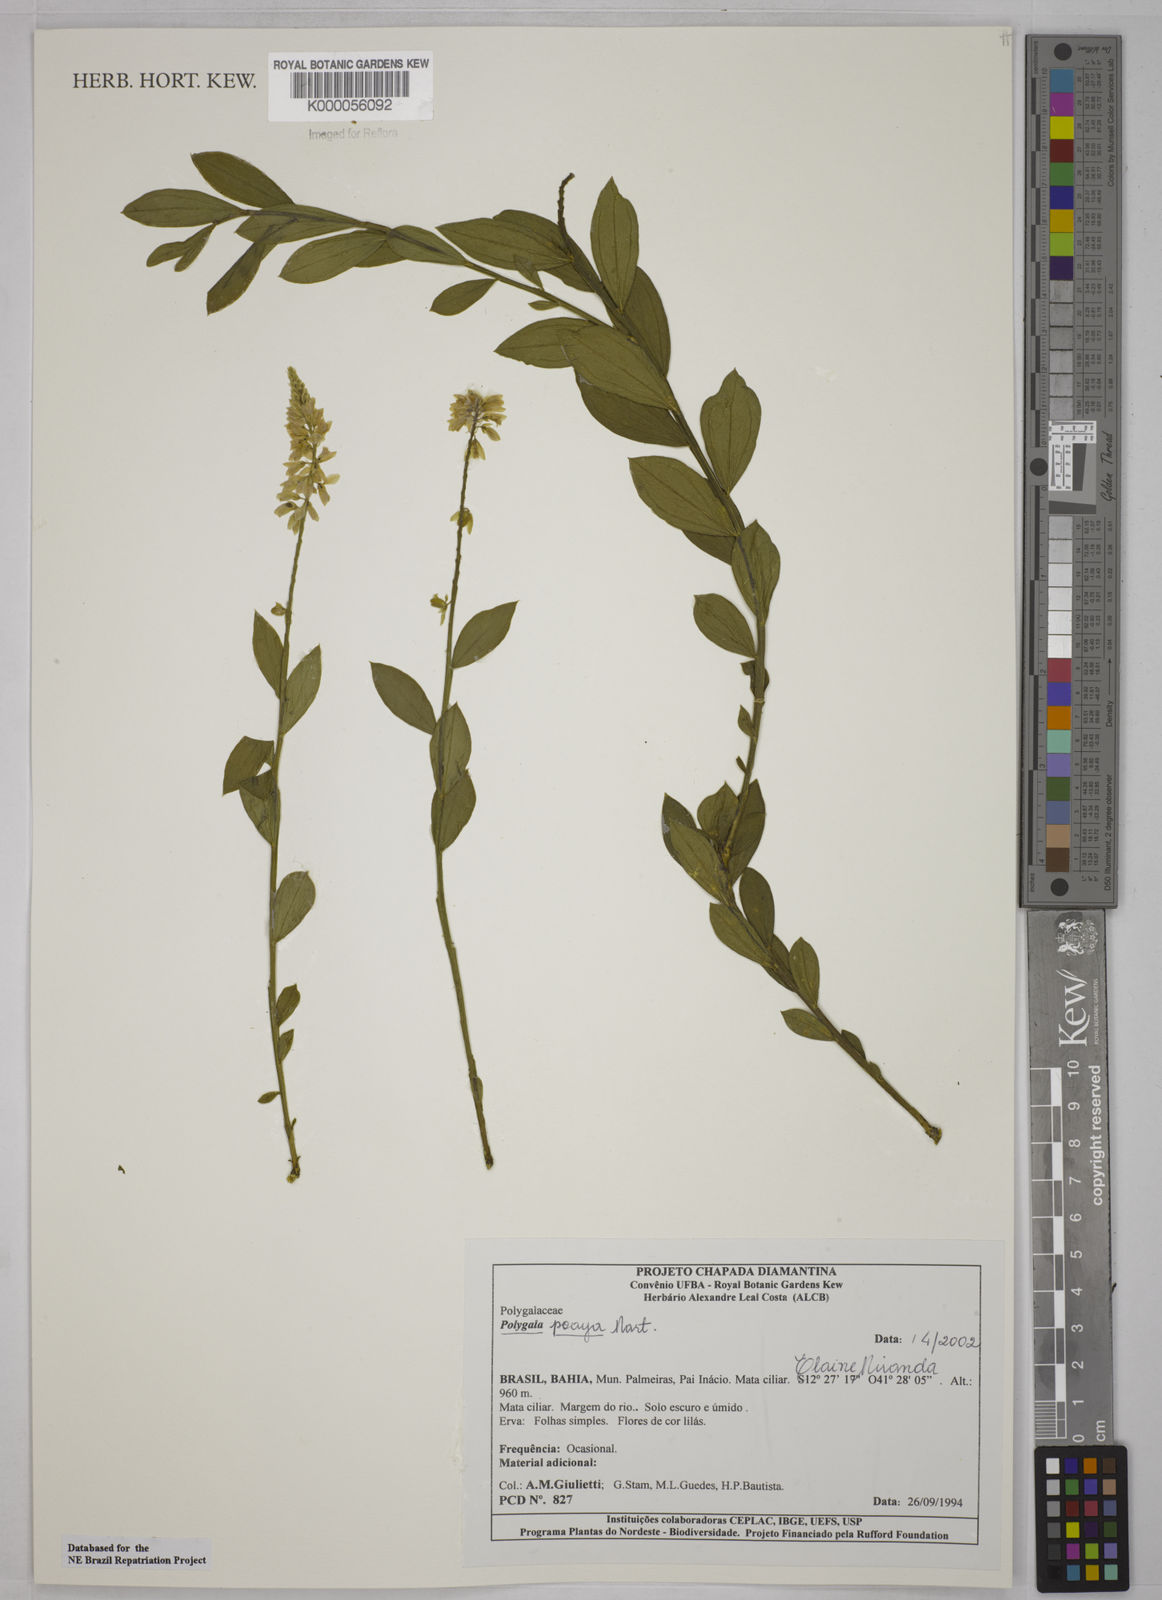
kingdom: Plantae
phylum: Tracheophyta
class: Magnoliopsida
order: Fabales
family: Polygalaceae
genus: Polygala
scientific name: Polygala poaya
